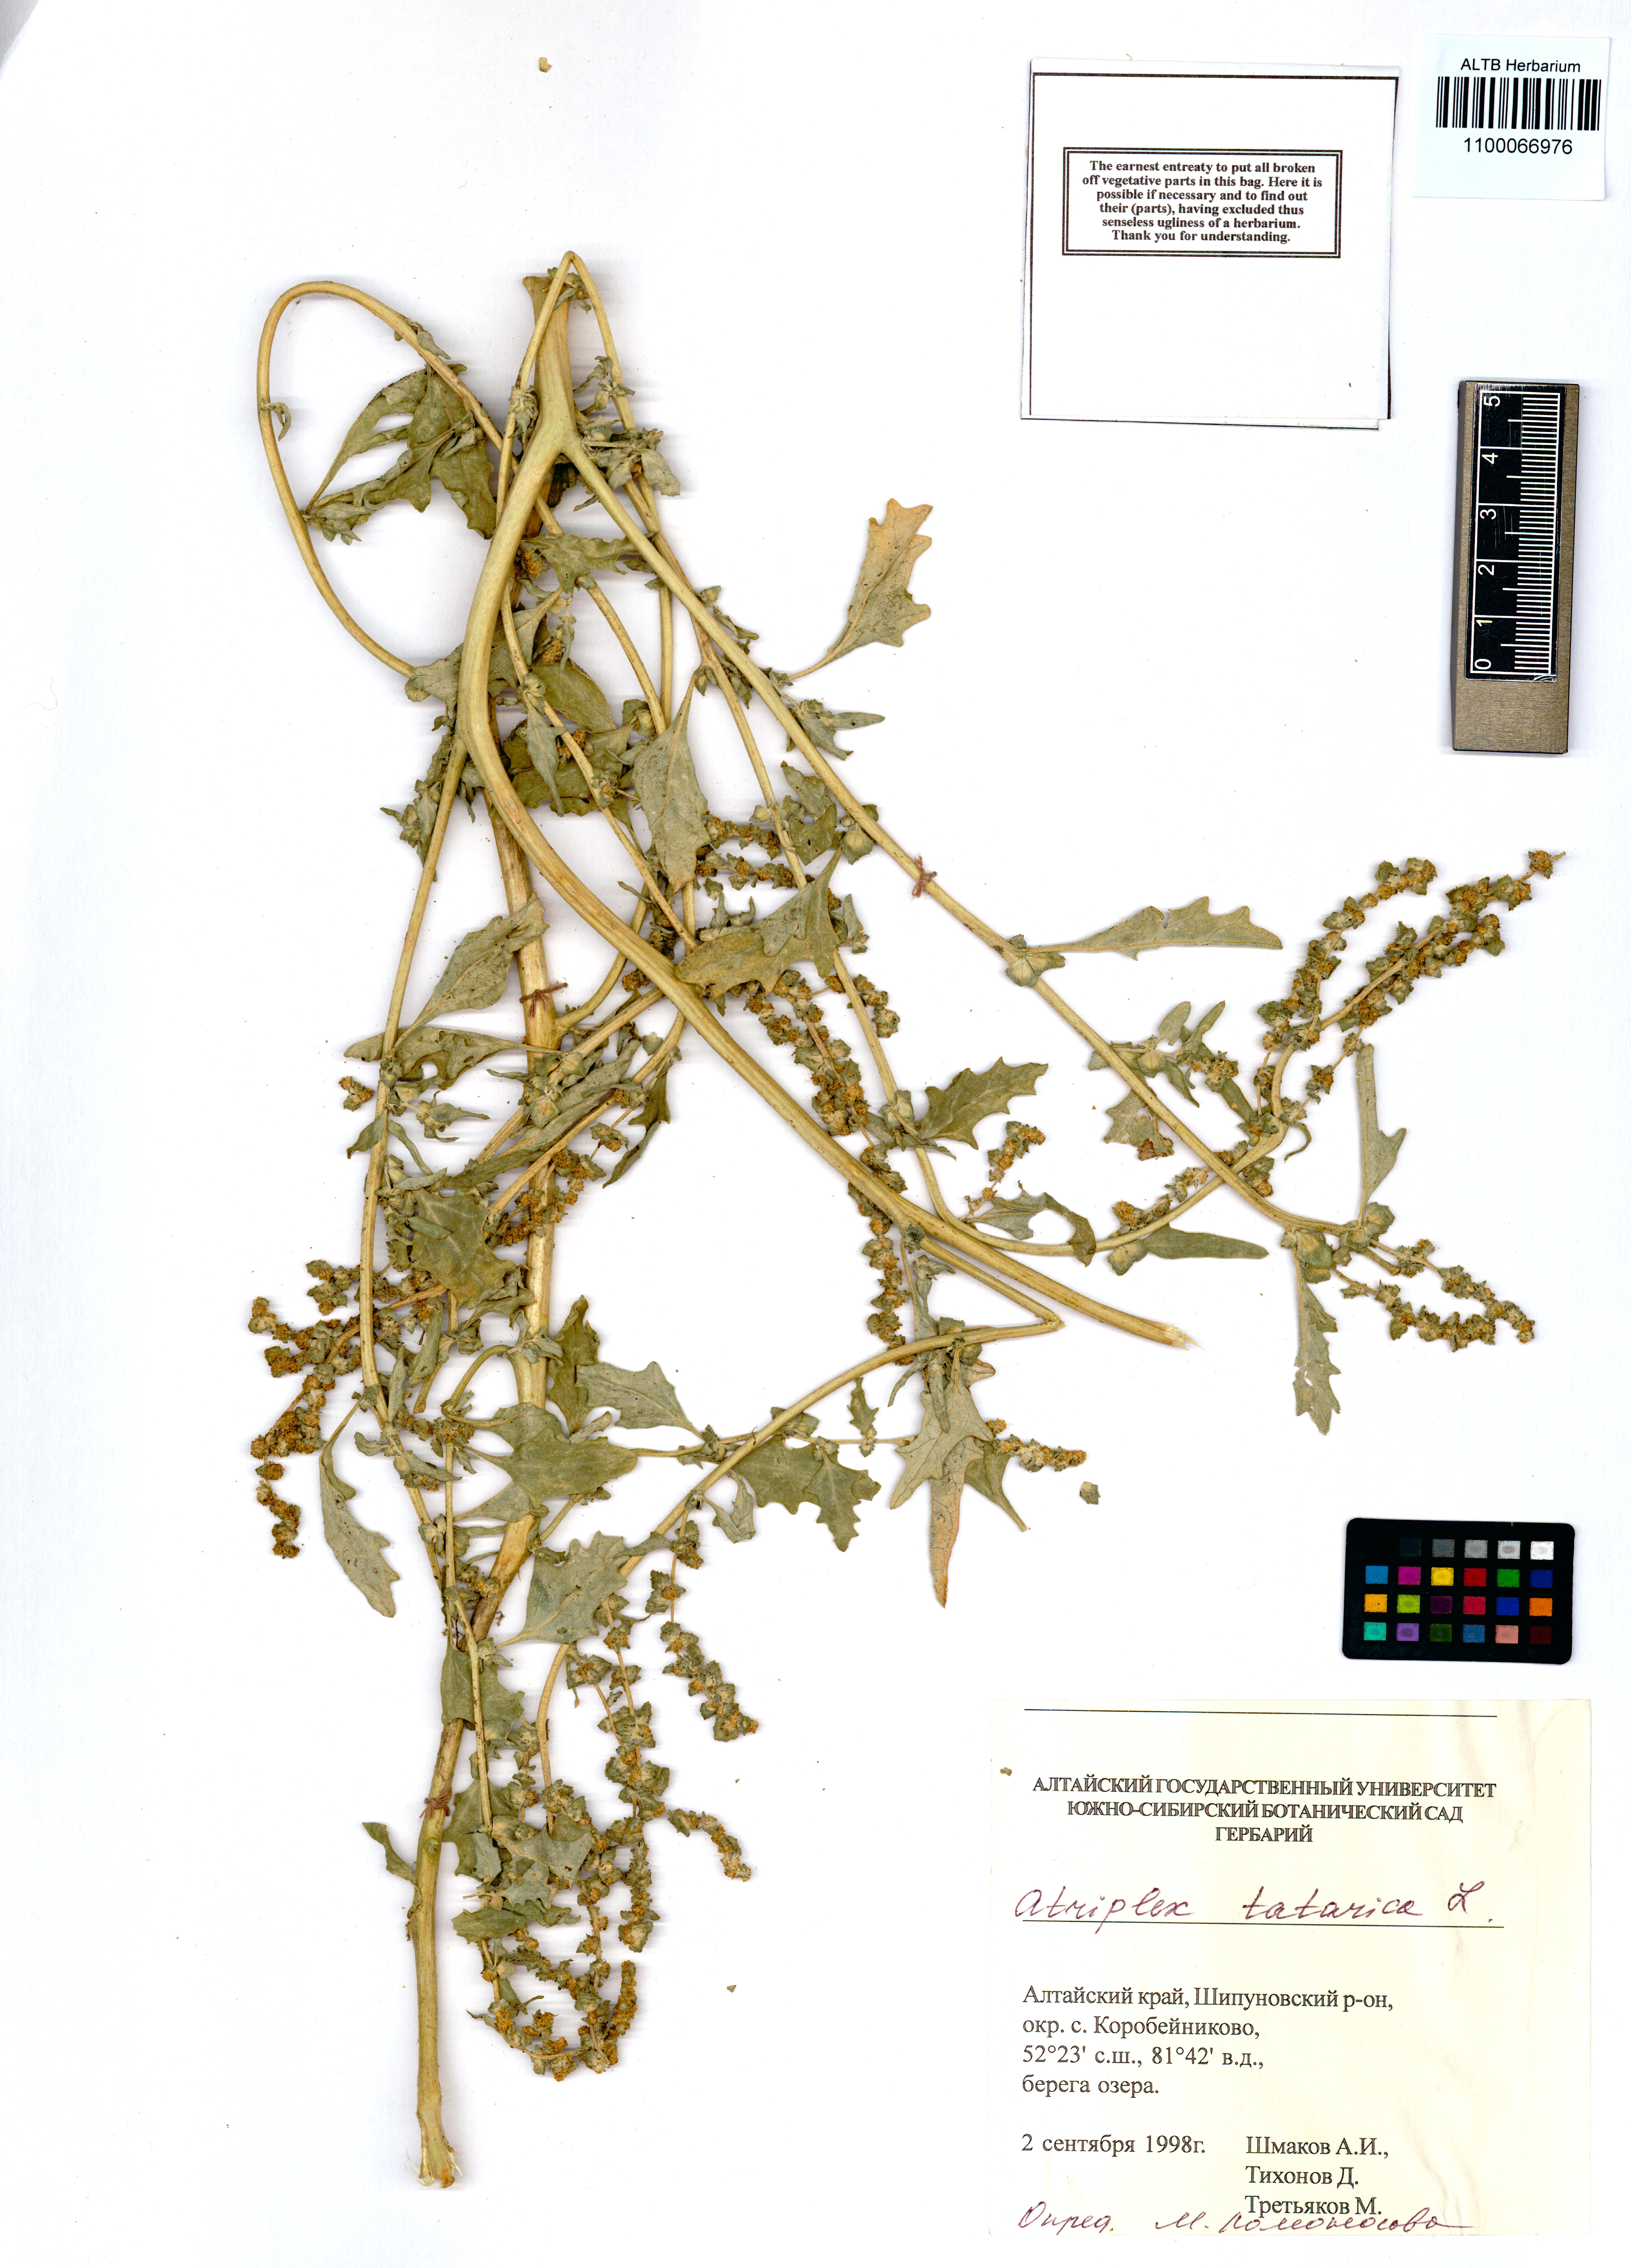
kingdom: Plantae
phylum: Tracheophyta
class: Magnoliopsida
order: Caryophyllales
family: Amaranthaceae
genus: Atriplex
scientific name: Atriplex tatarica
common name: Tatarian orache
